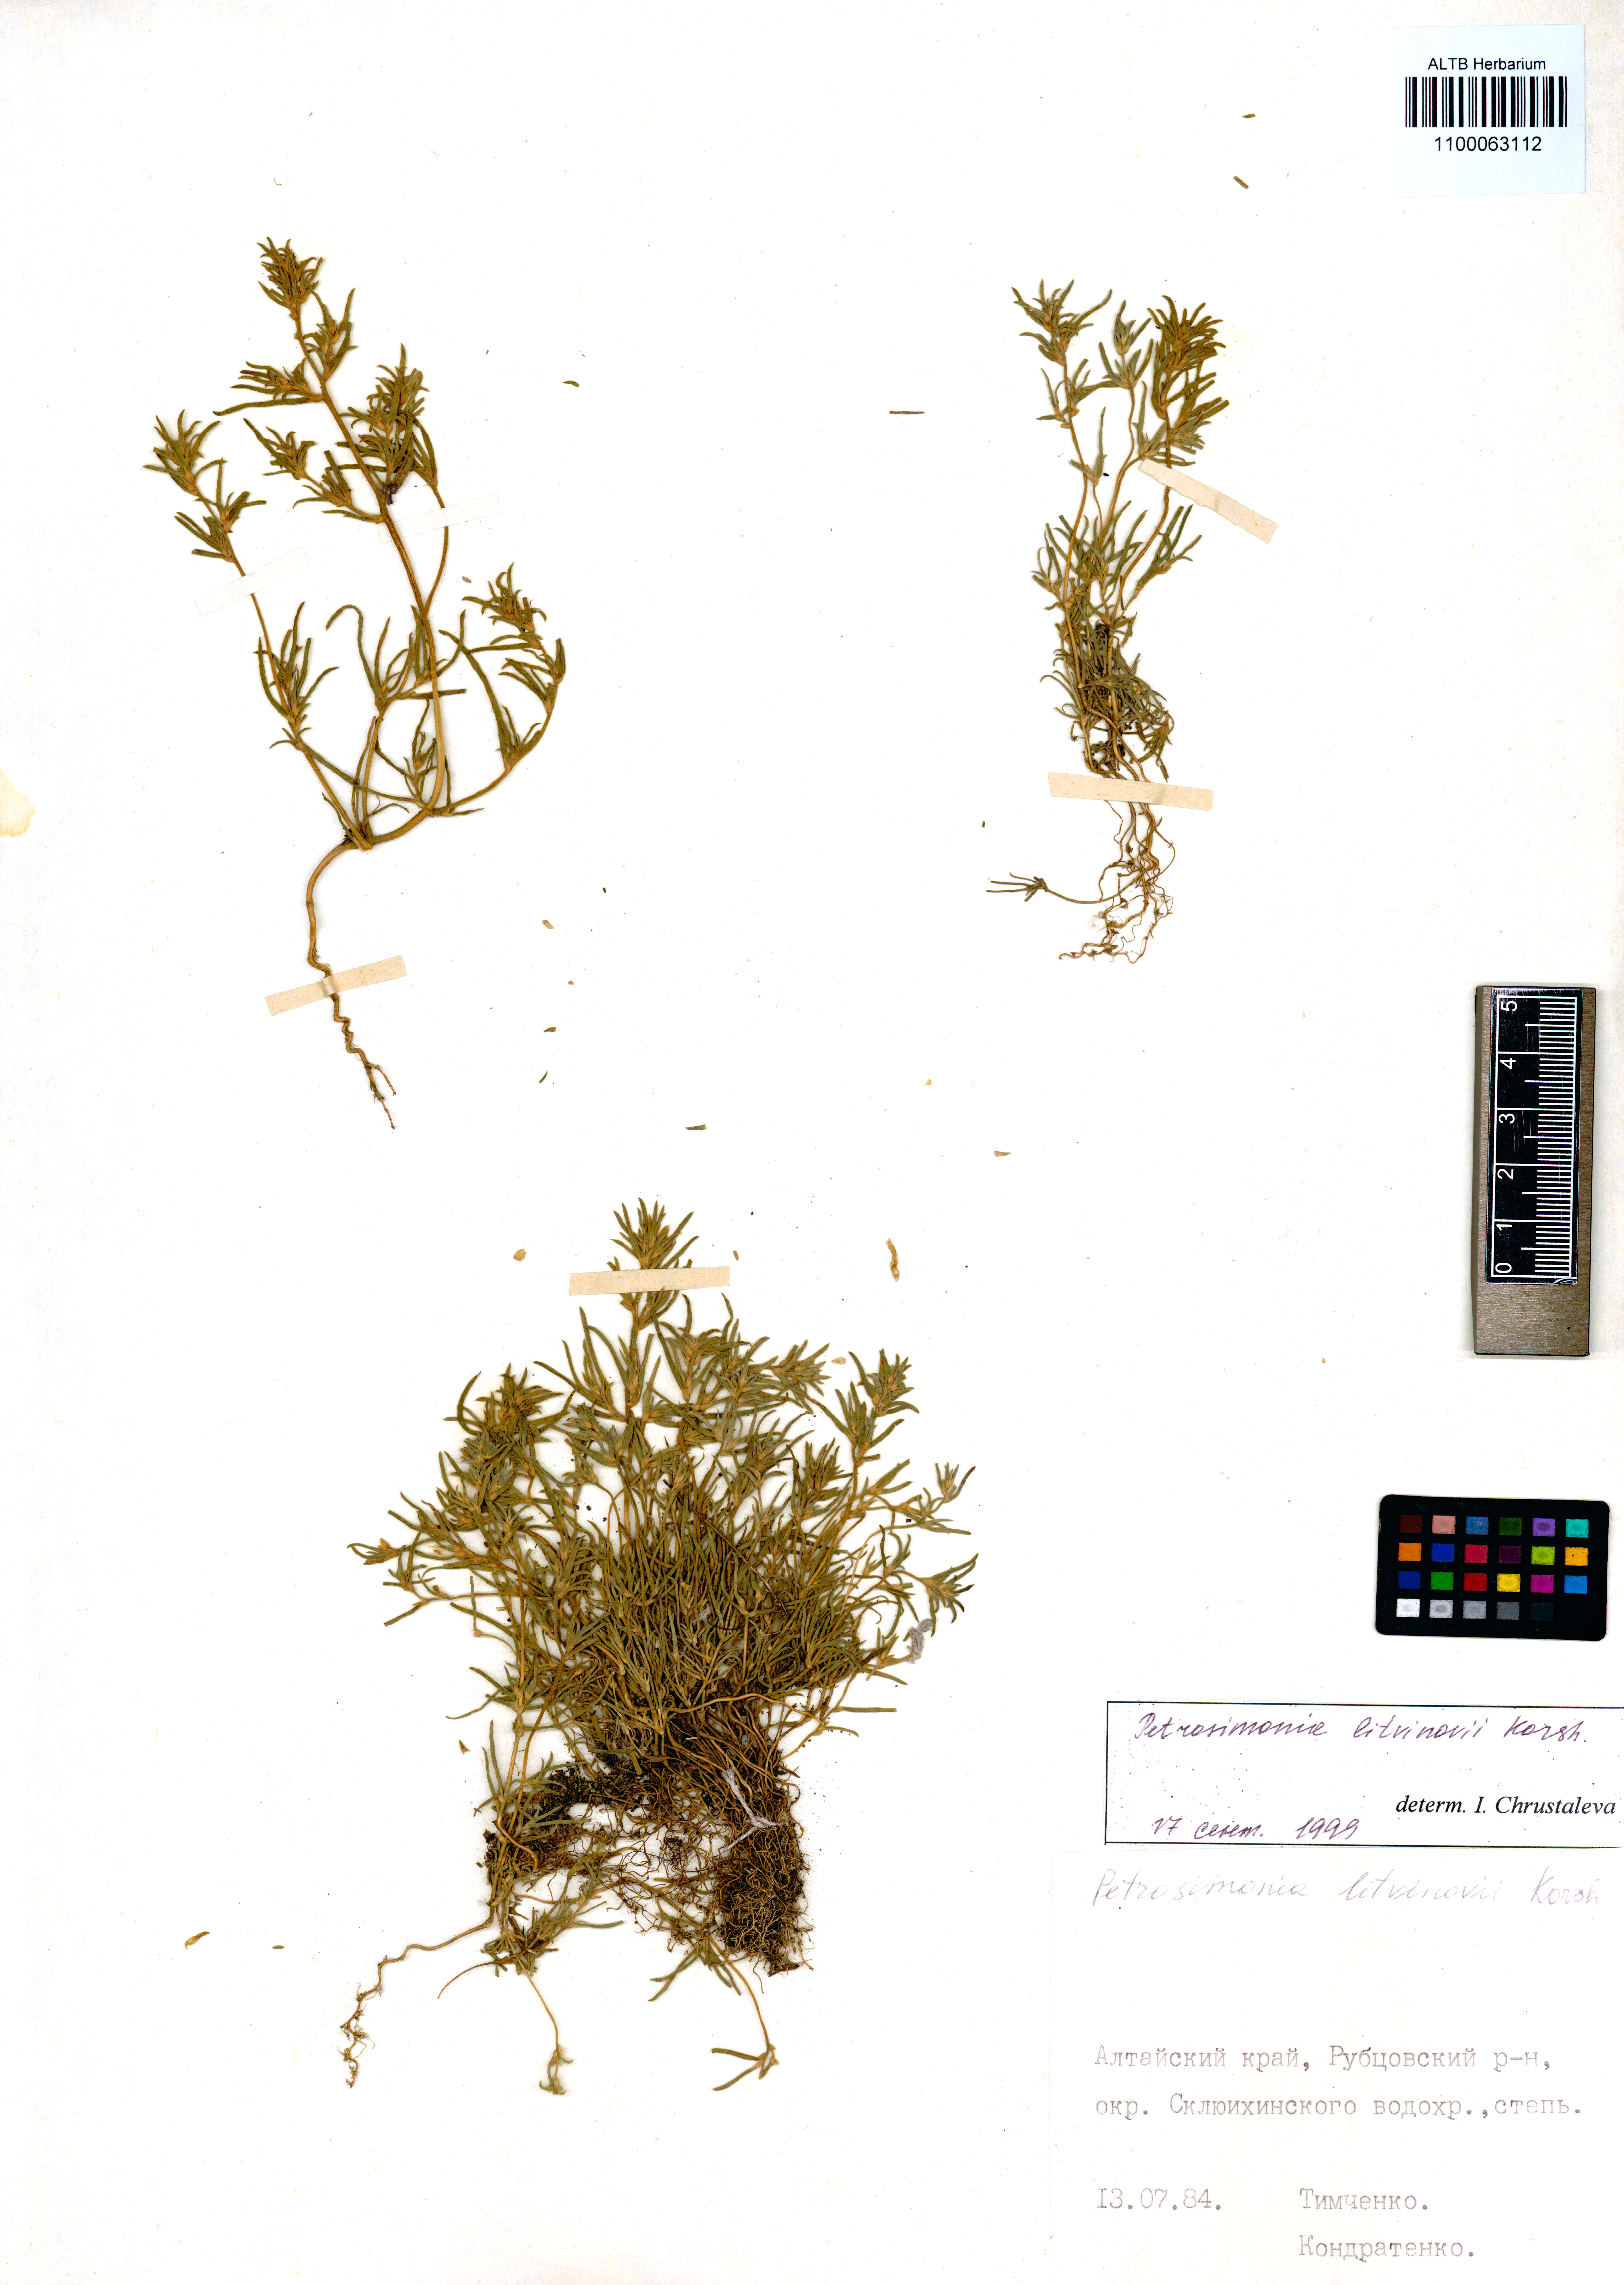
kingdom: Plantae
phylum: Tracheophyta
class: Magnoliopsida
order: Caryophyllales
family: Amaranthaceae
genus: Petrosimonia
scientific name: Petrosimonia litvinowi
